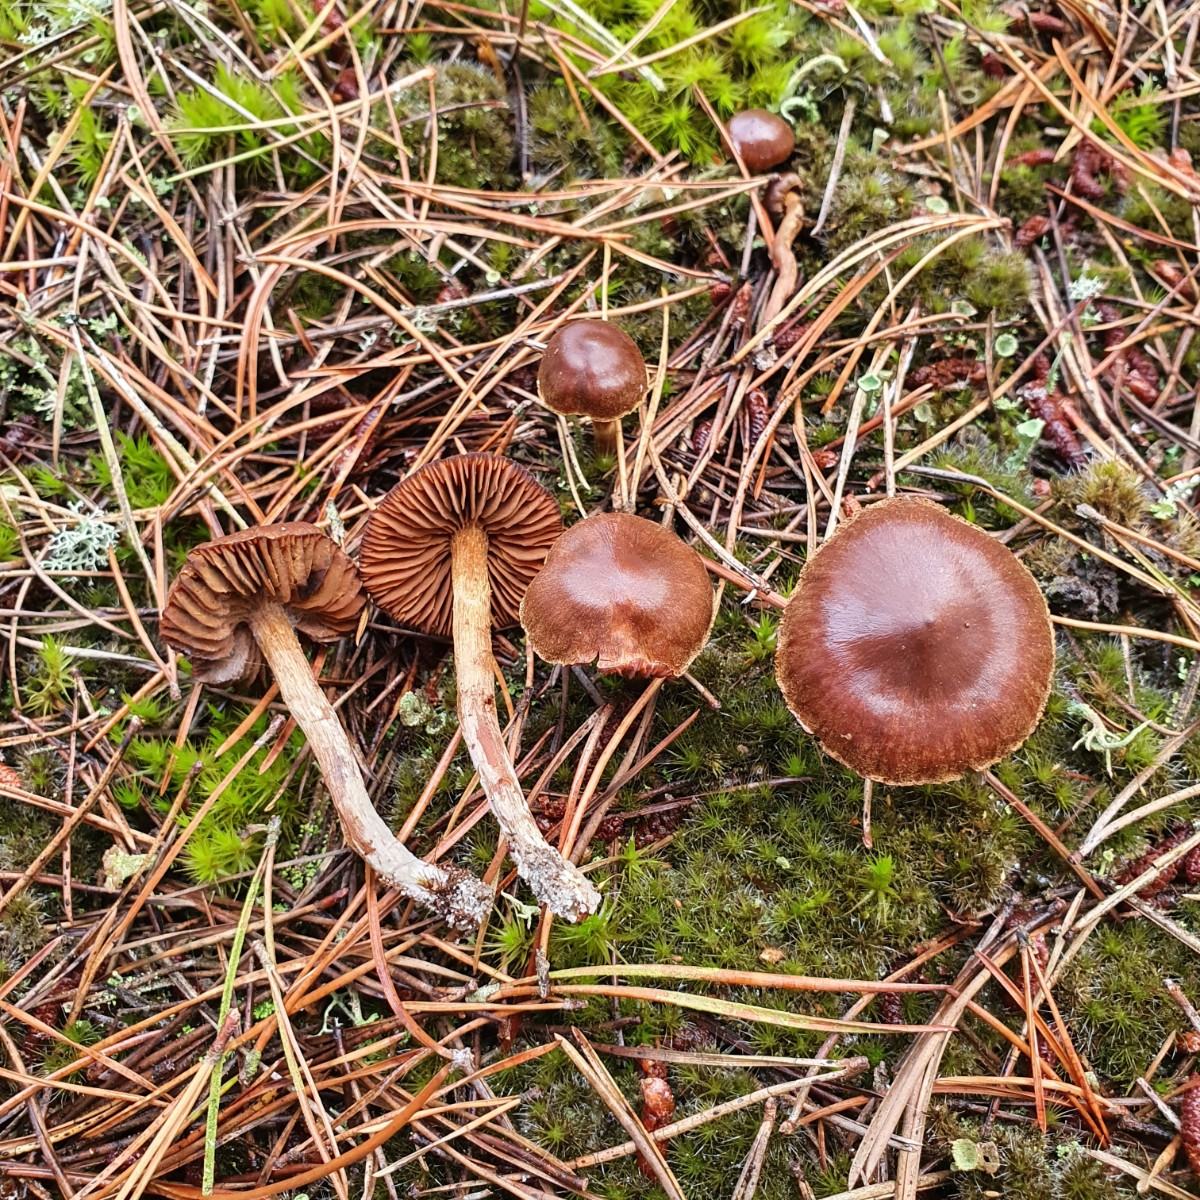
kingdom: Fungi
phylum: Basidiomycota
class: Agaricomycetes
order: Agaricales
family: Cortinariaceae
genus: Cortinarius
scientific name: Cortinarius
